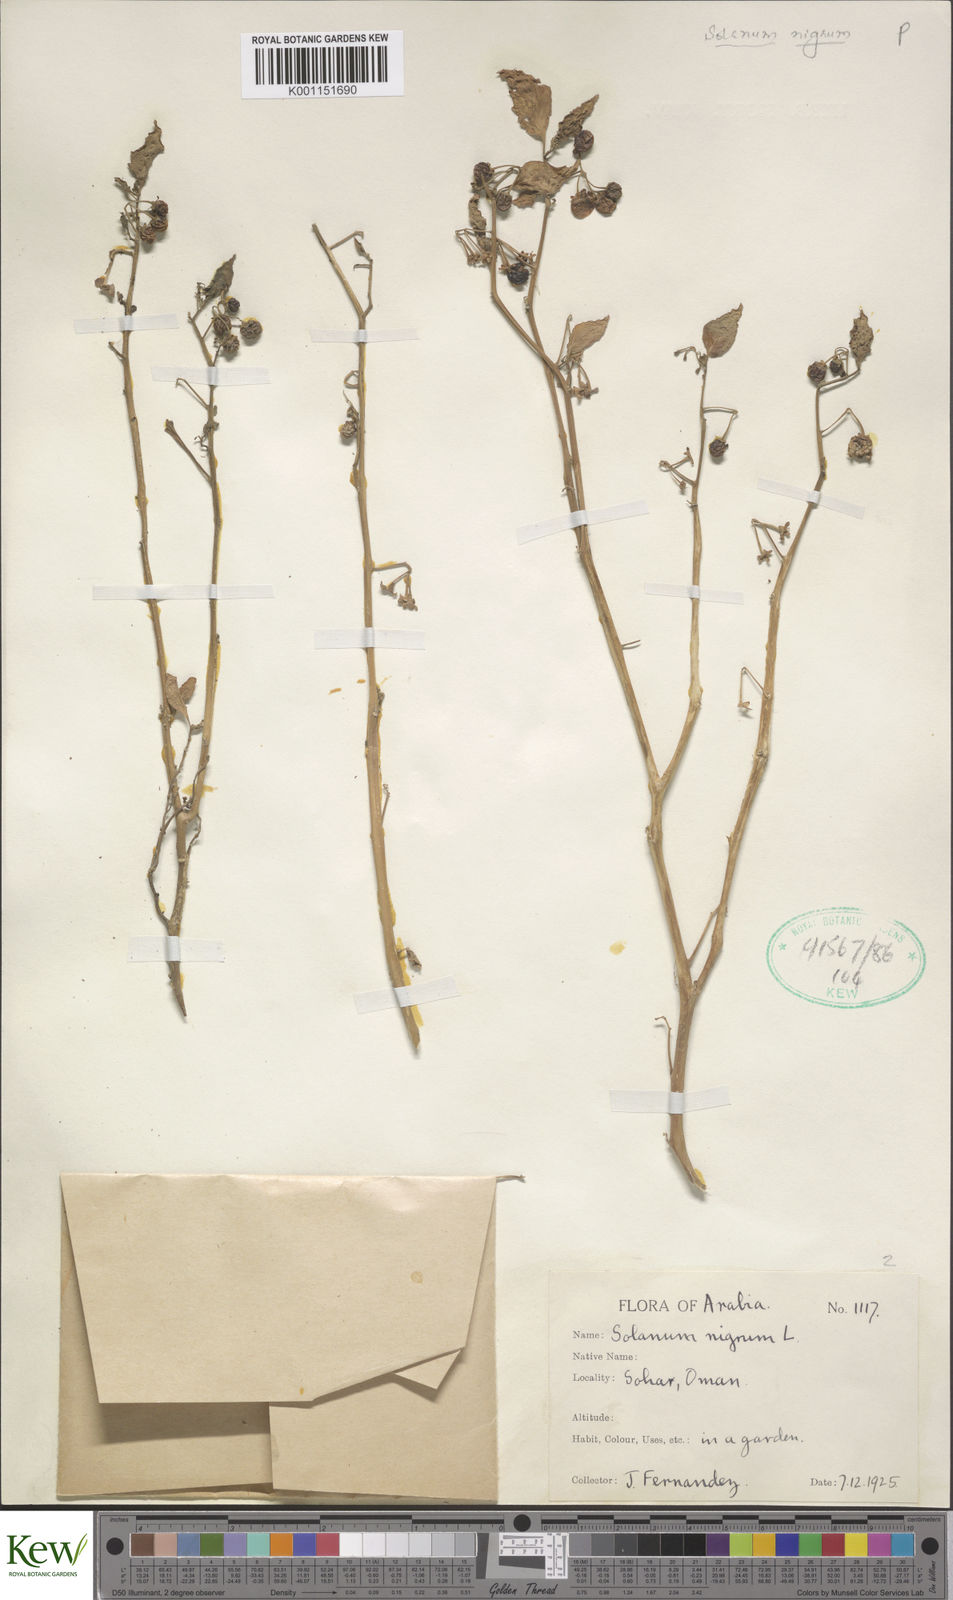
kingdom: Plantae
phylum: Tracheophyta
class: Magnoliopsida
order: Solanales
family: Solanaceae
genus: Solanum
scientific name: Solanum nigrum
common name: Black nightshade
